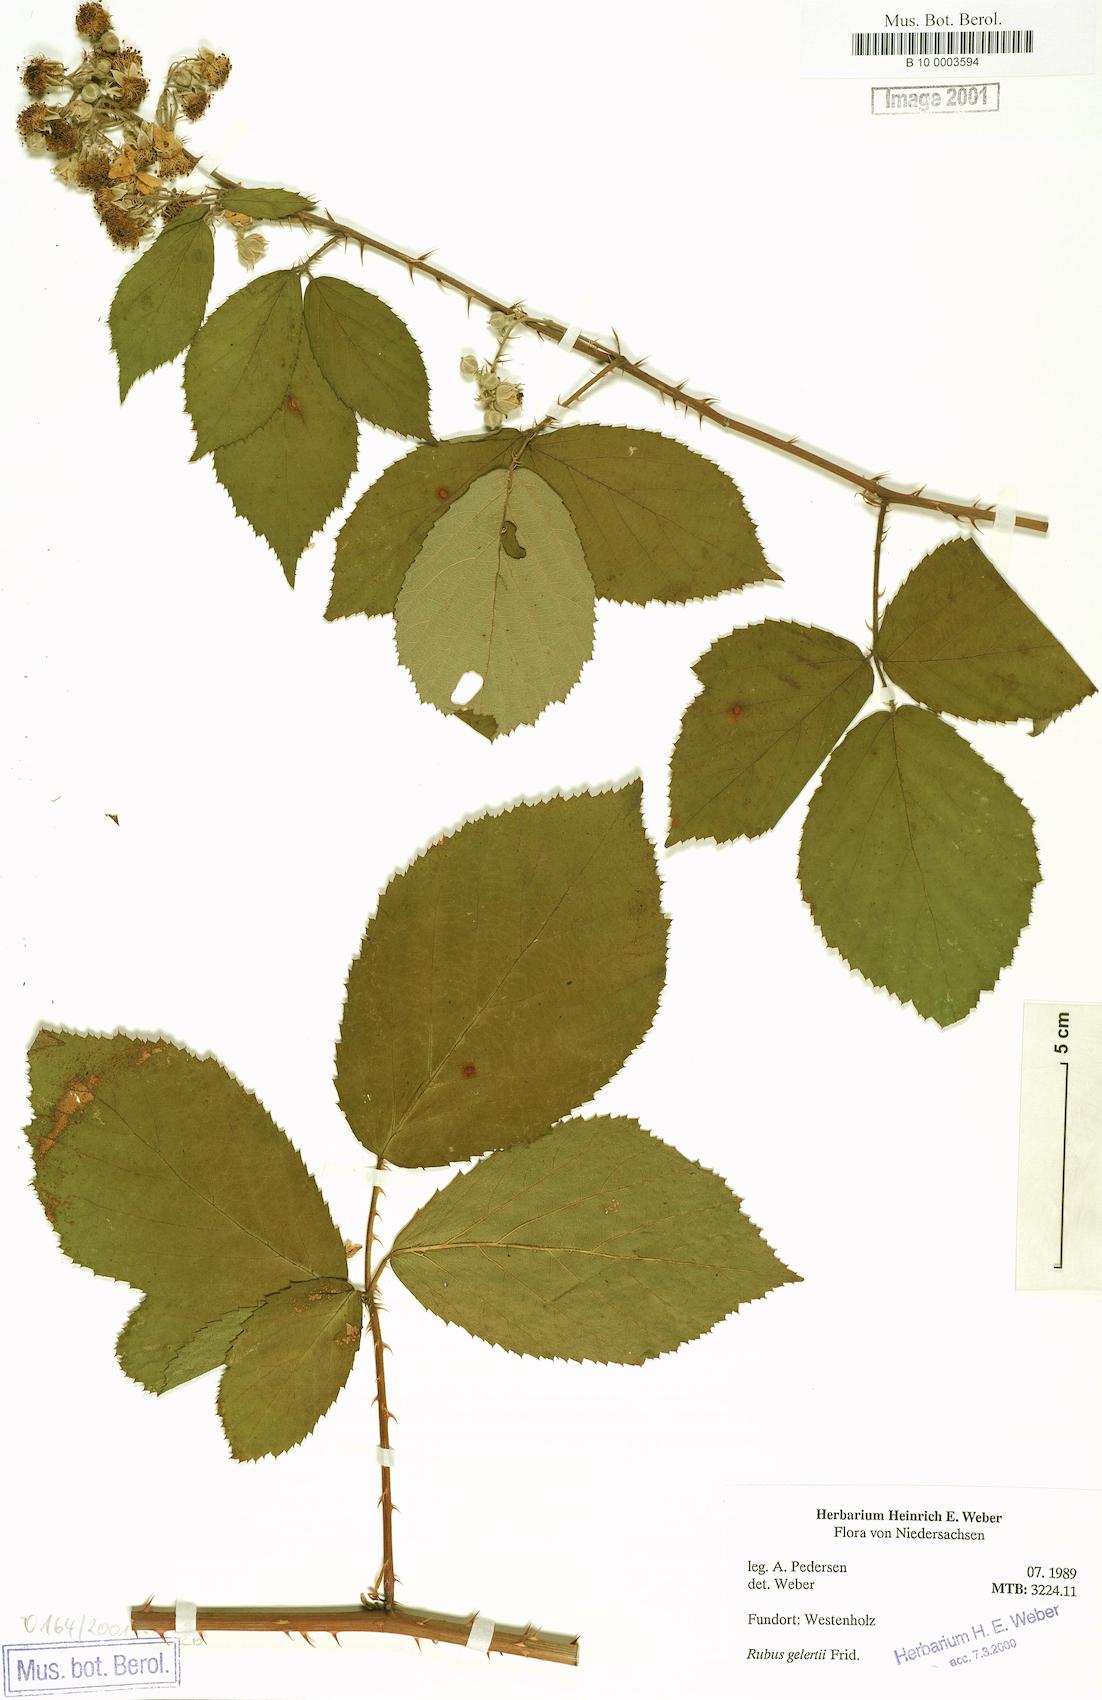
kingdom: Plantae
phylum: Tracheophyta
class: Magnoliopsida
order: Rosales
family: Rosaceae
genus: Rubus
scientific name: Rubus gelertii
